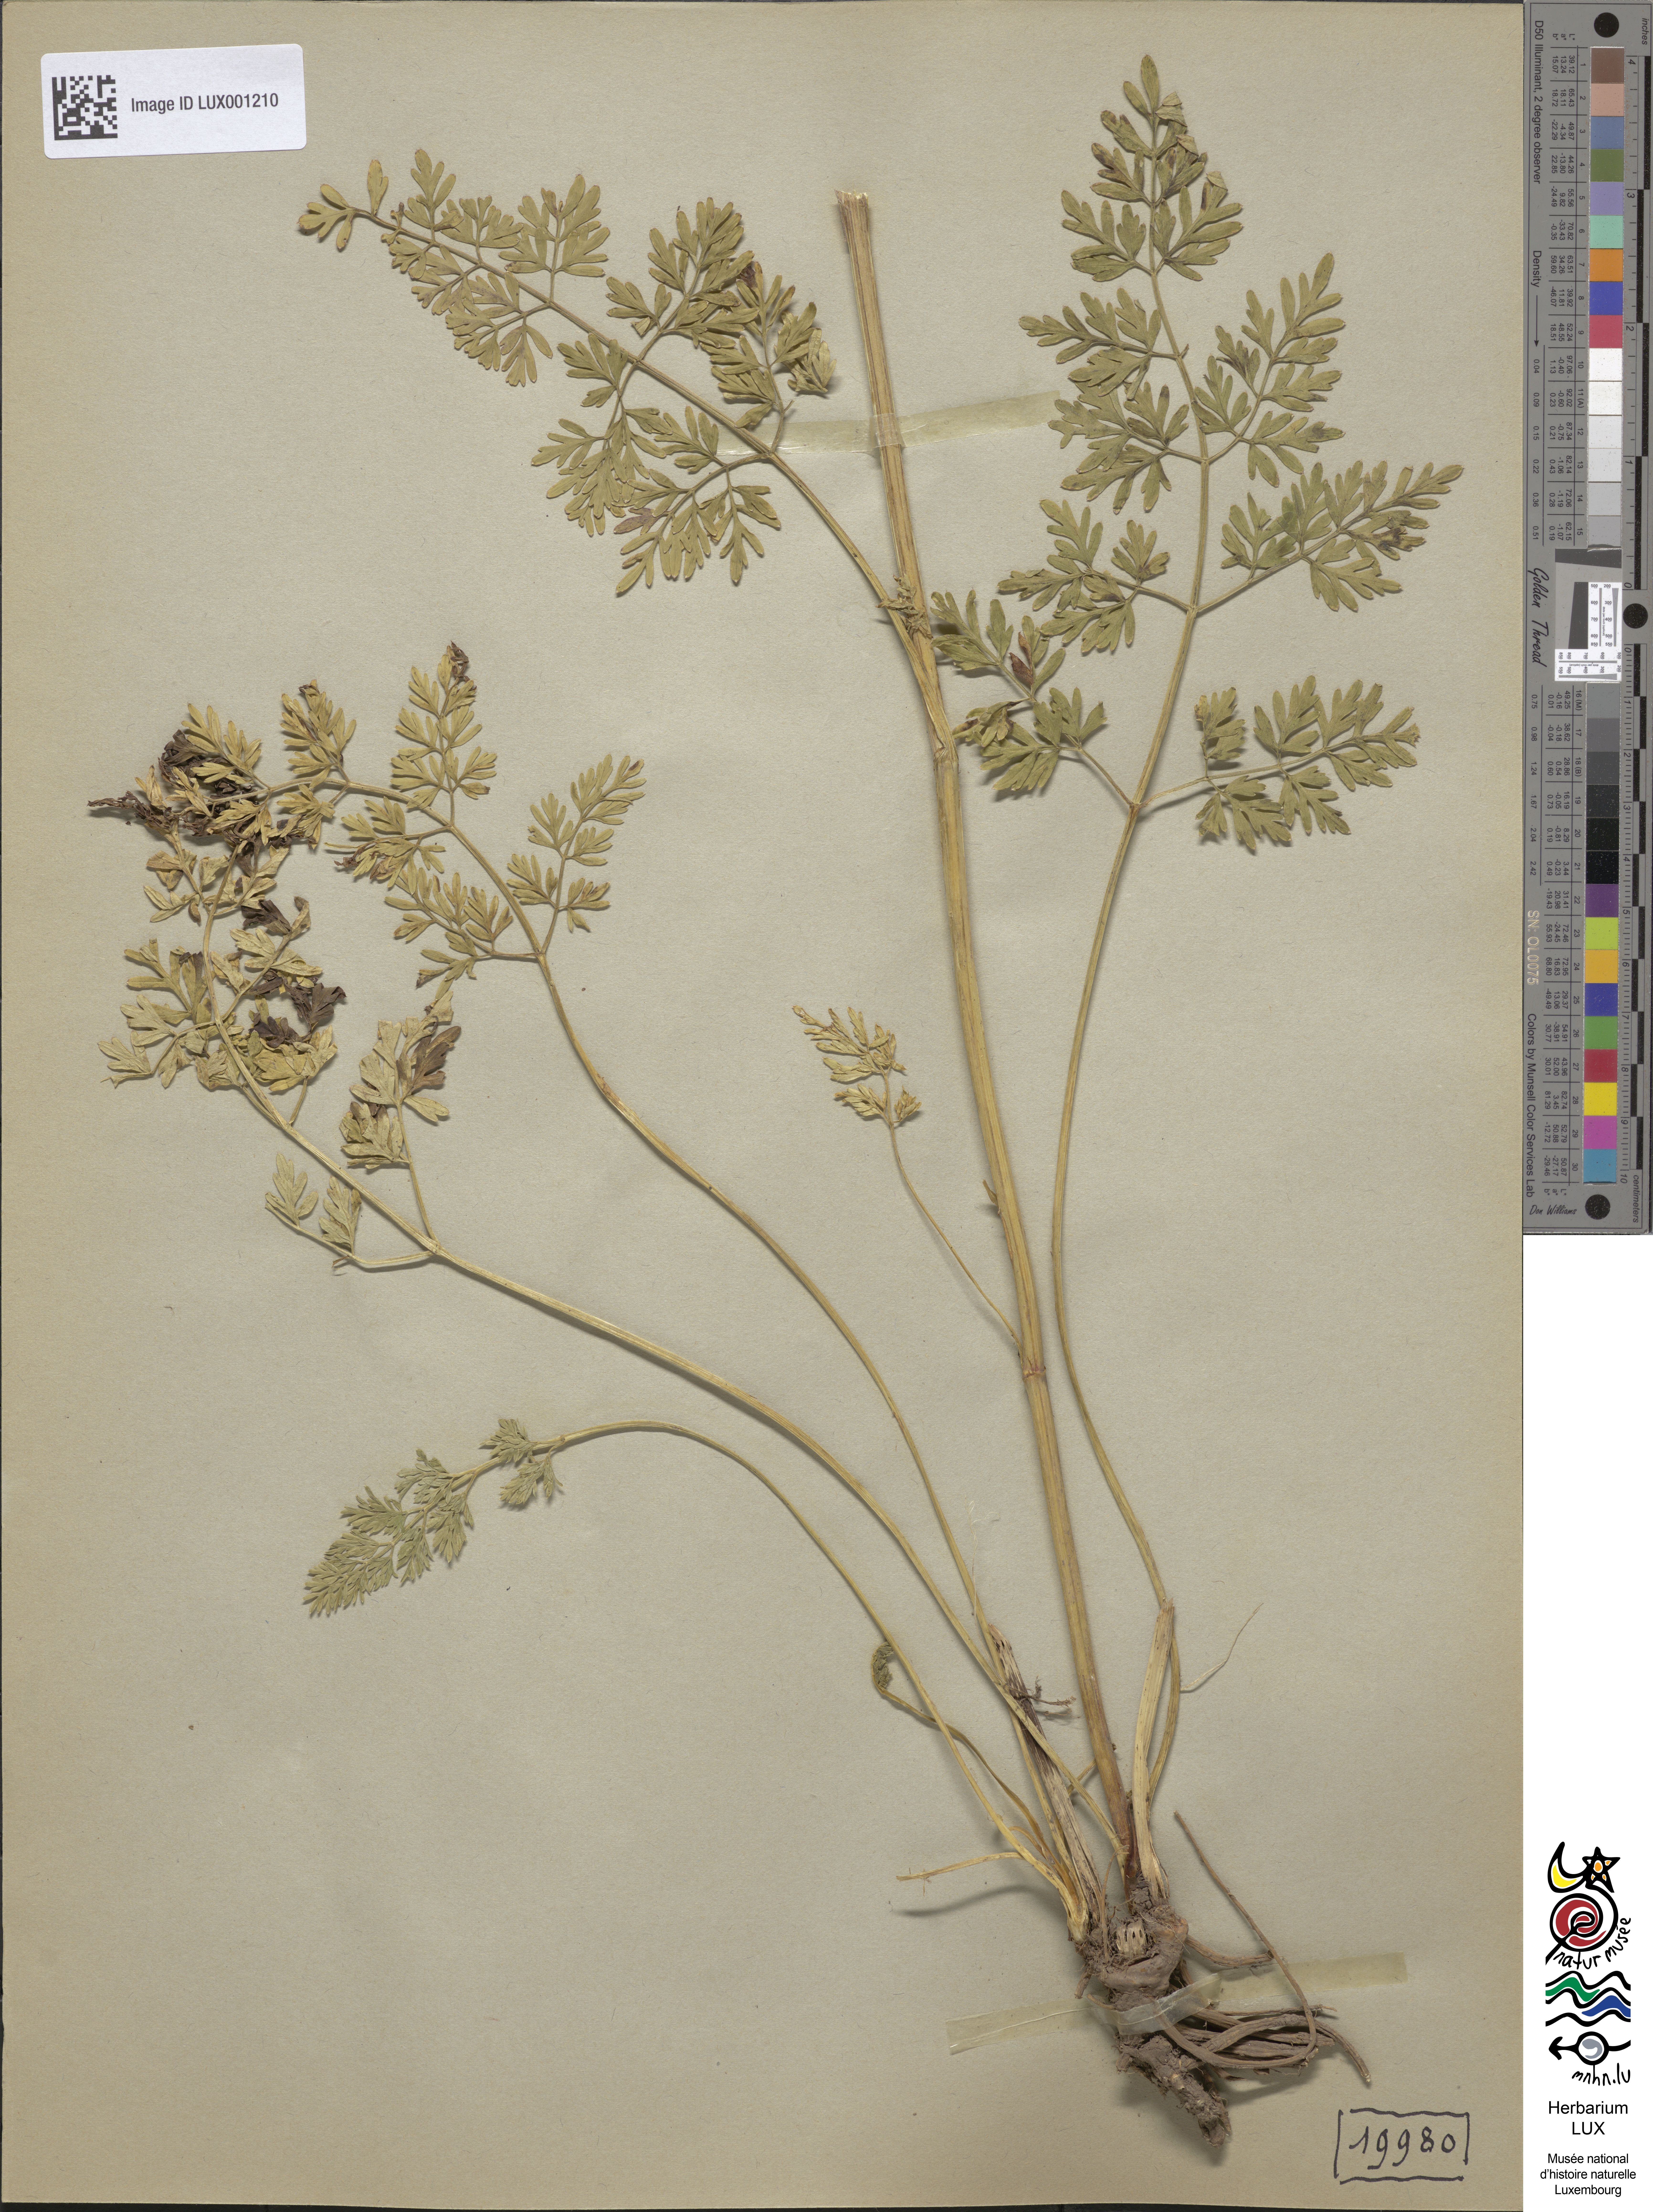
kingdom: Plantae
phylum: Tracheophyta
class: Magnoliopsida
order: Apiales
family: Apiaceae
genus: Selinum
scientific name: Selinum carvifolia
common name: Cambridge milk-parsley
